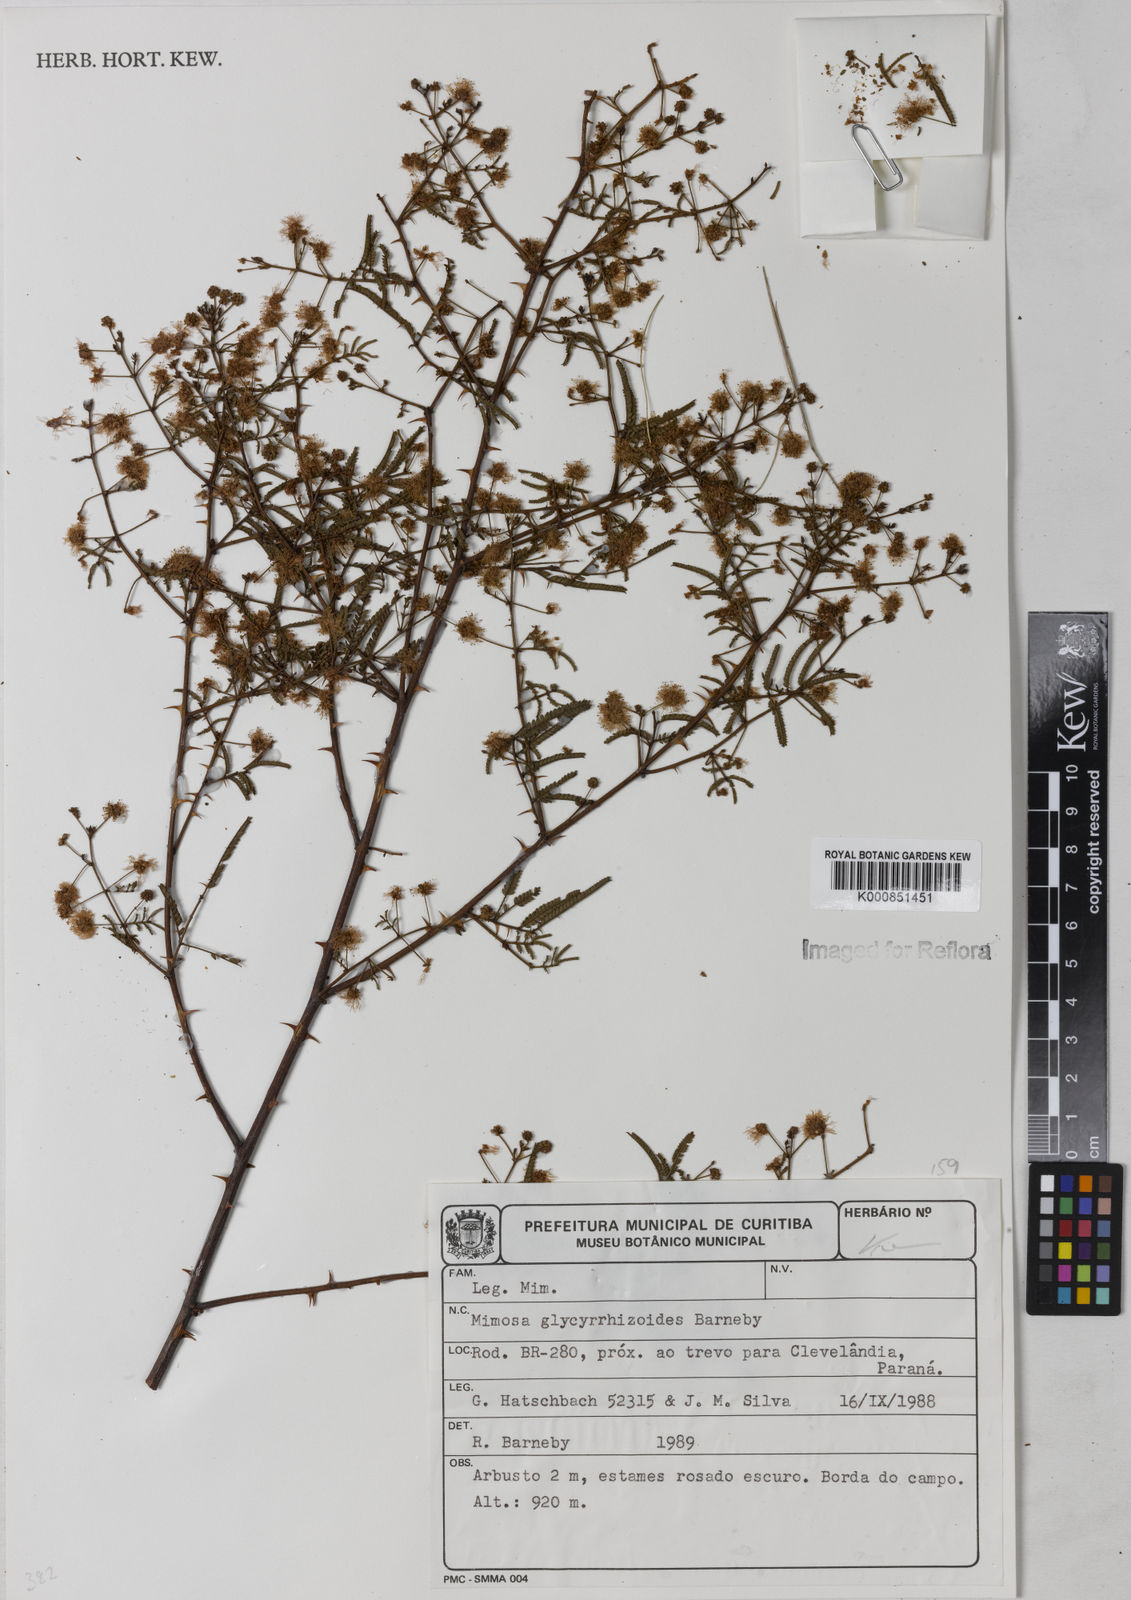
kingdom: Plantae
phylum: Tracheophyta
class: Magnoliopsida
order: Fabales
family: Fabaceae
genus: Mimosa
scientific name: Mimosa glycyrrhizoides
